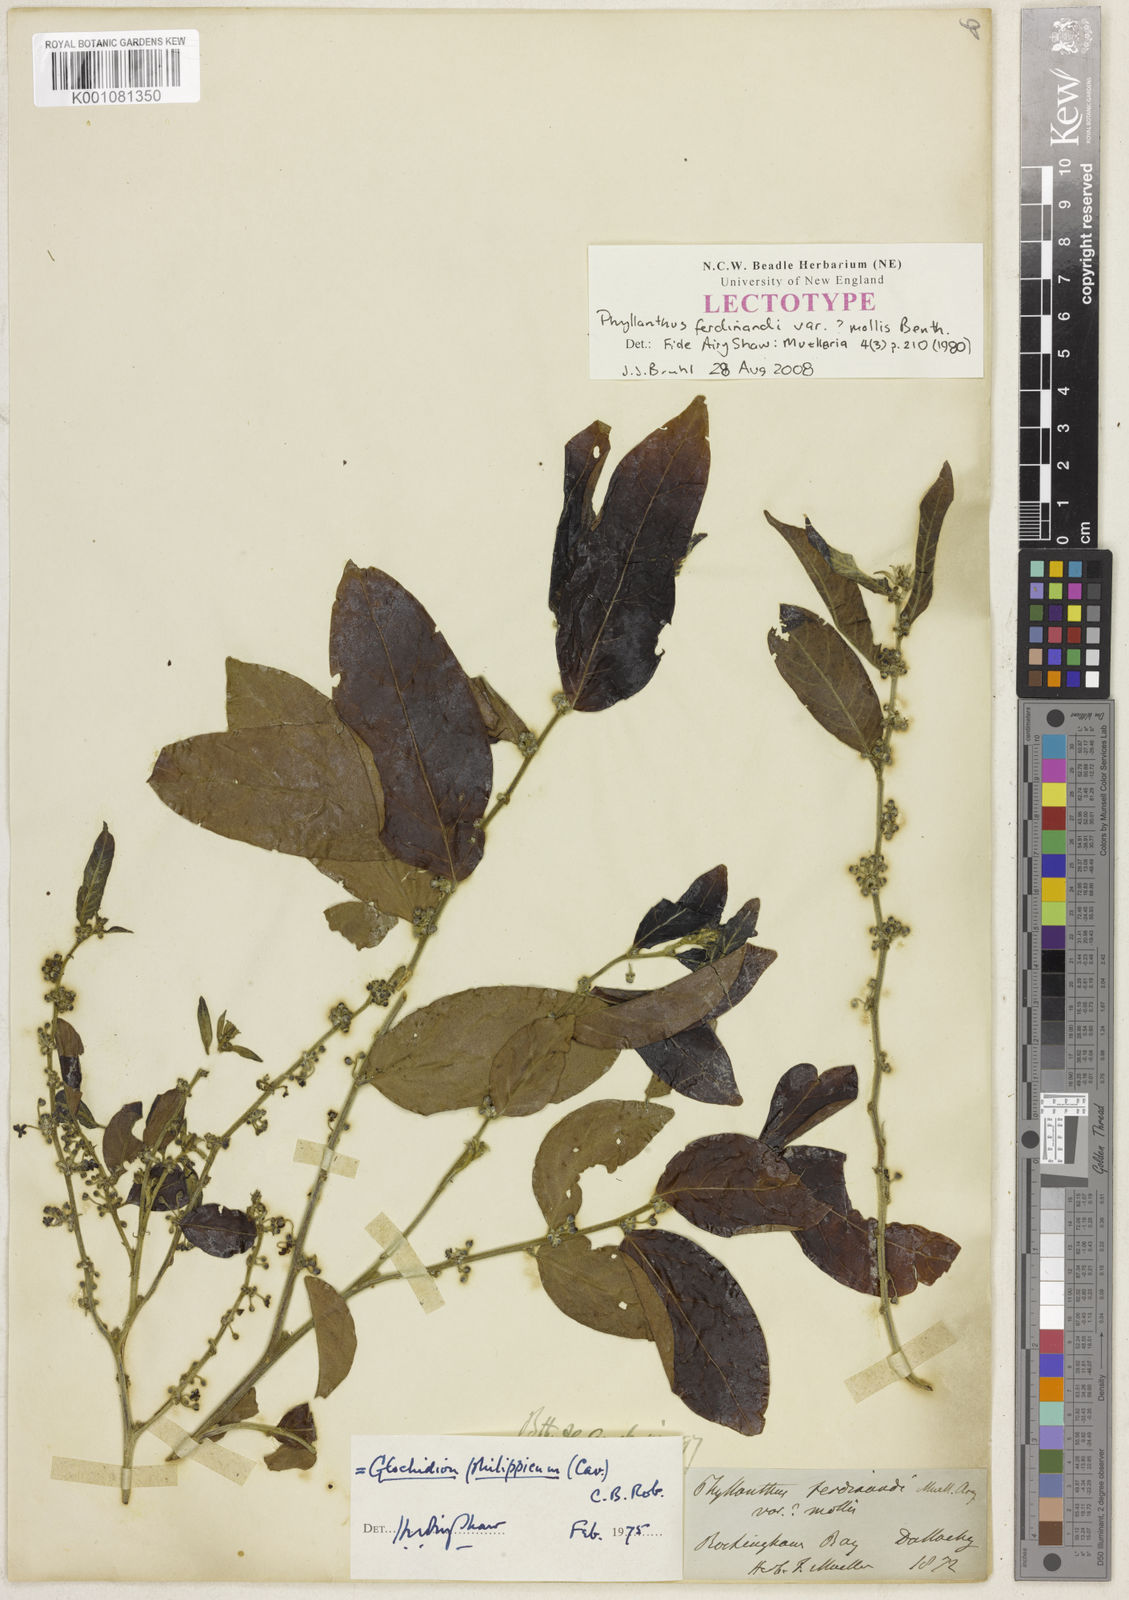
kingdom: Plantae
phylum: Tracheophyta
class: Magnoliopsida
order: Malpighiales
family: Phyllanthaceae
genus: Glochidion
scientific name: Glochidion philippicum
